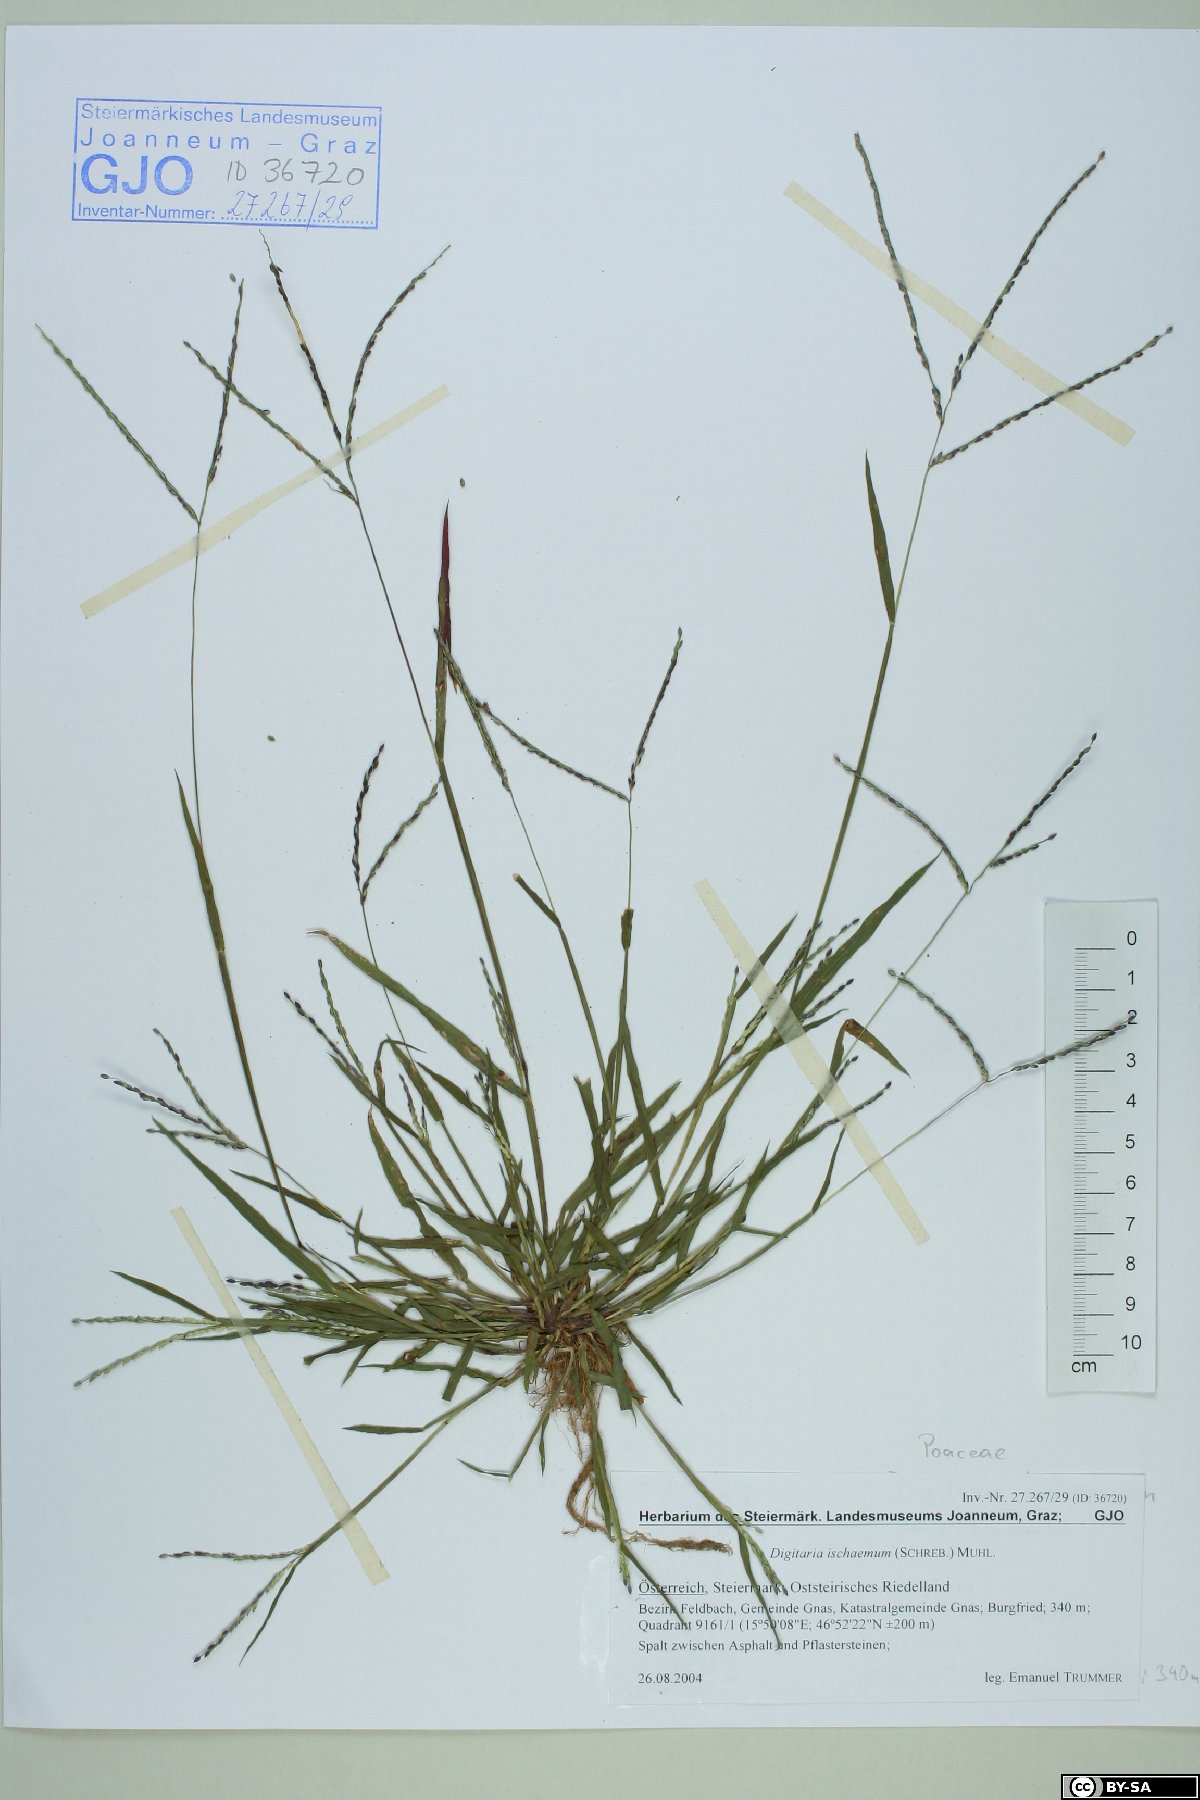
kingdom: Plantae
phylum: Tracheophyta
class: Liliopsida
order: Poales
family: Poaceae
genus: Digitaria
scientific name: Digitaria ischaemum
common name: Smooth crabgrass
